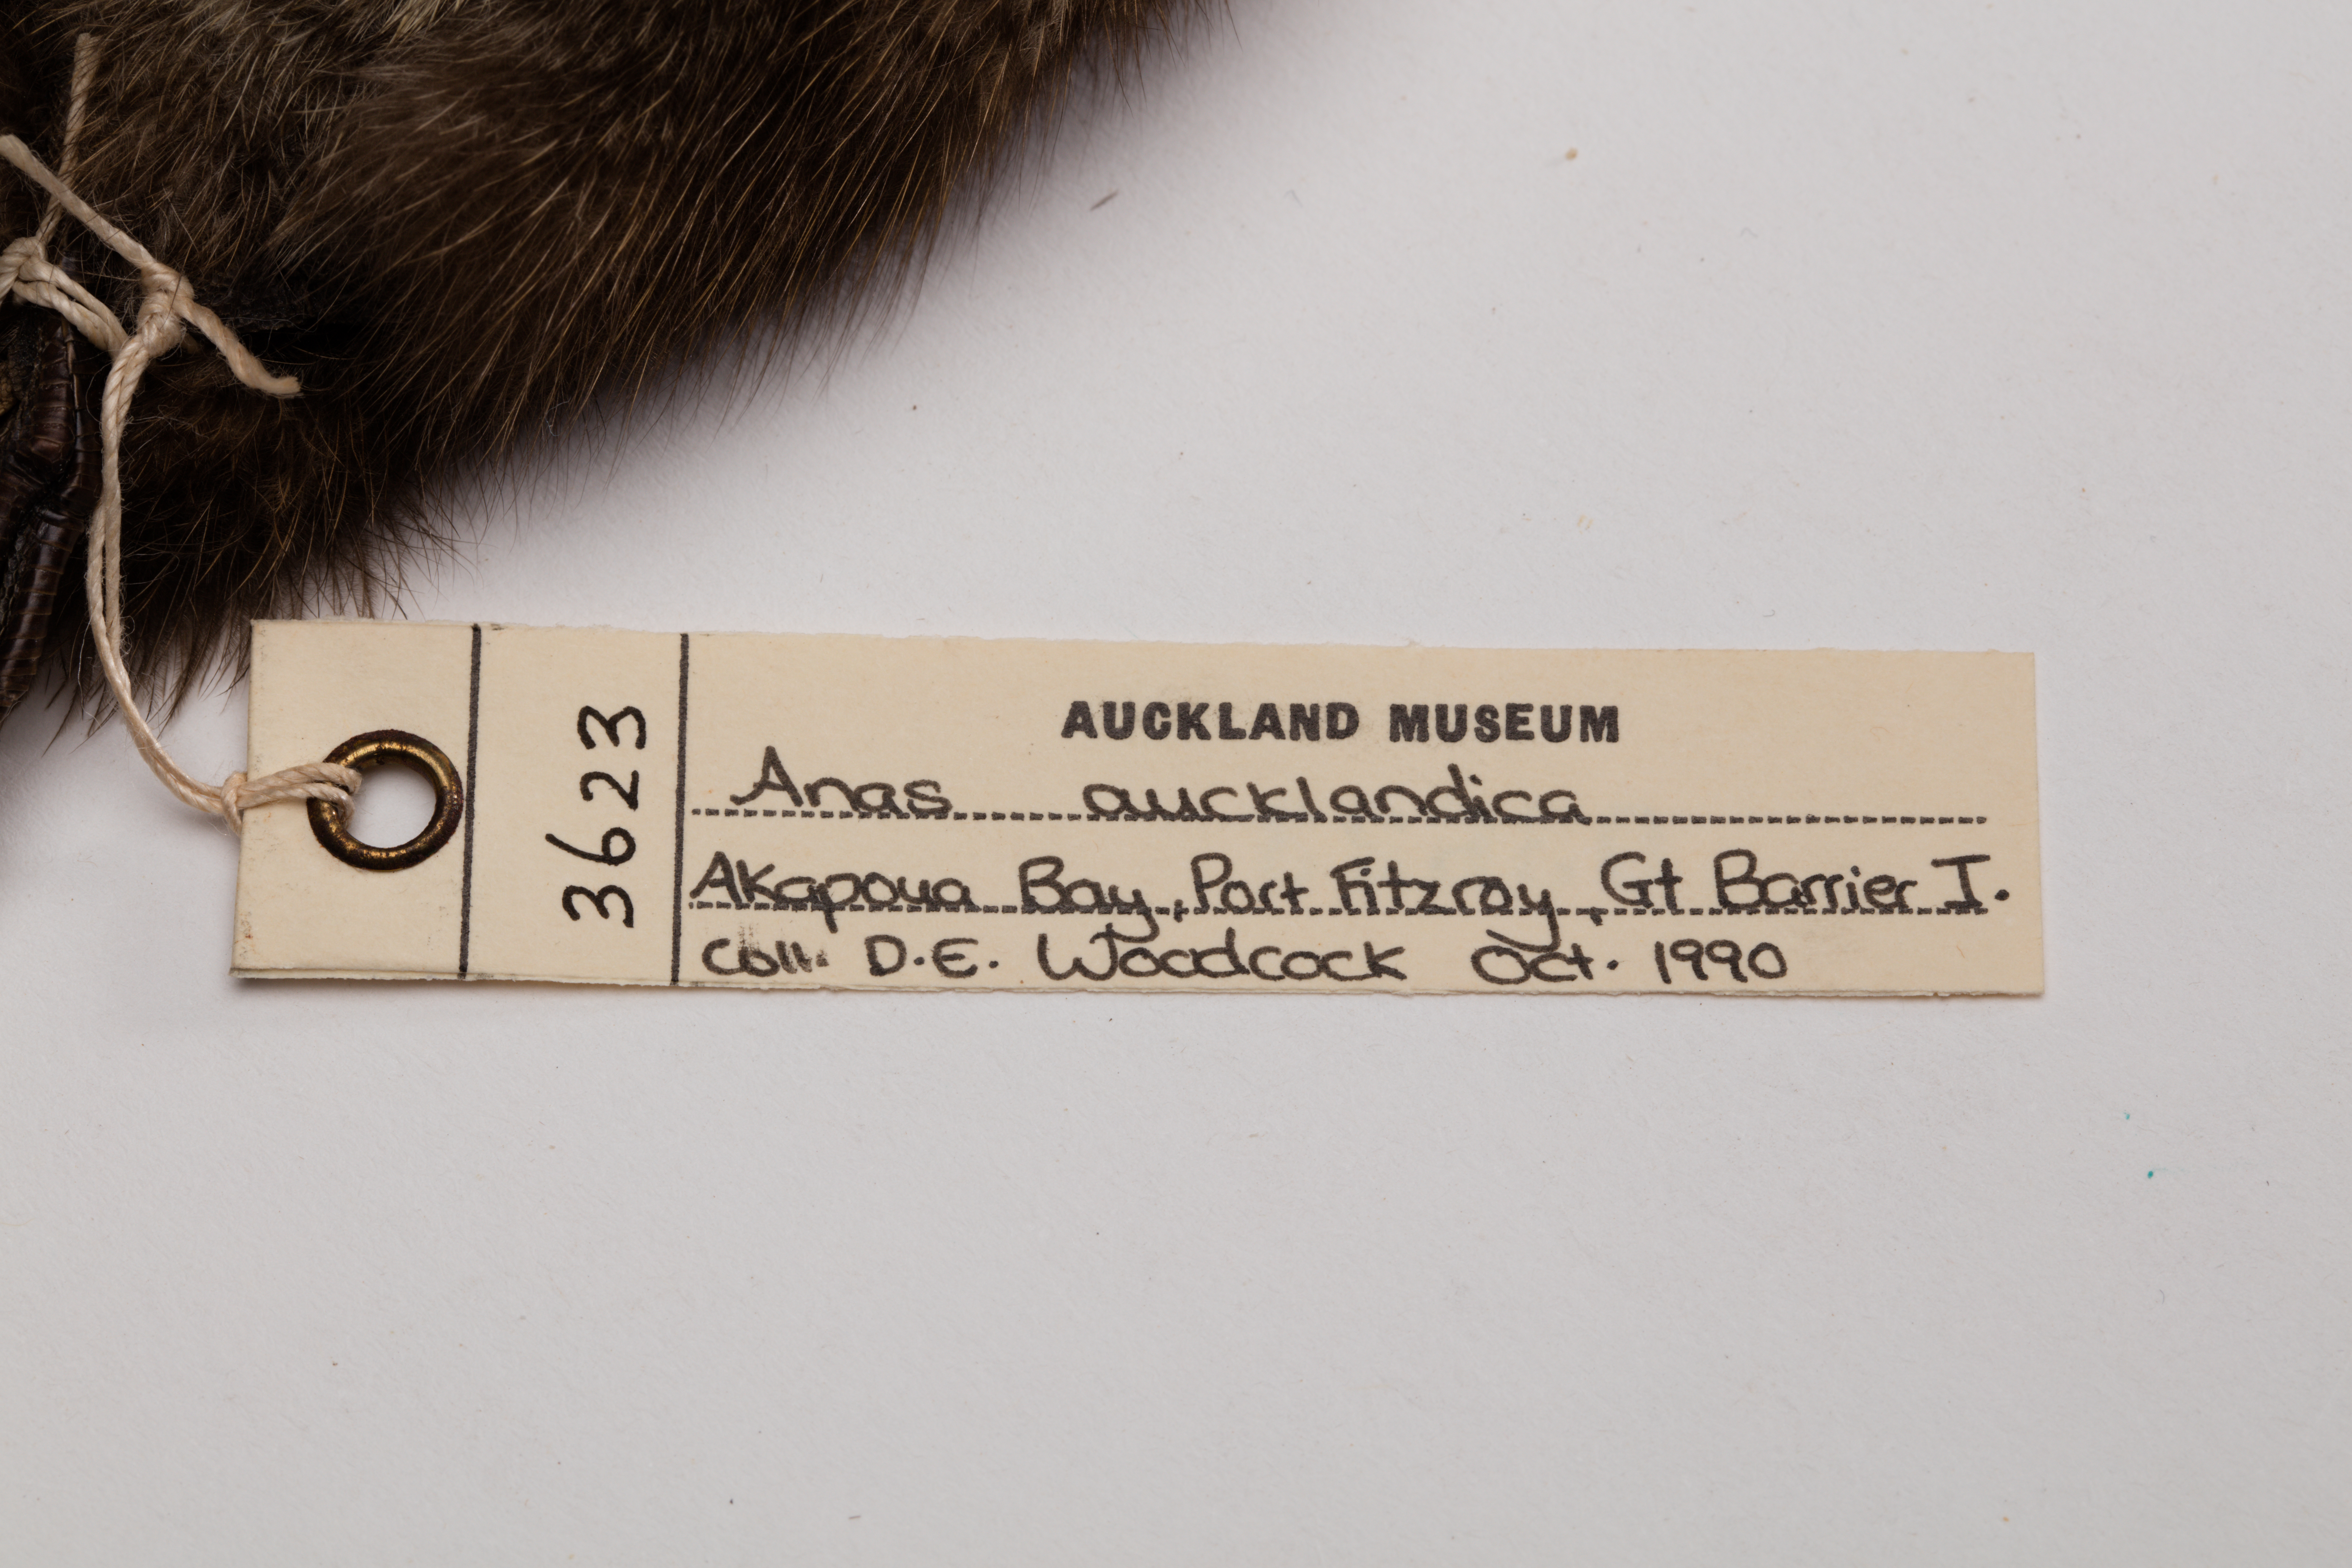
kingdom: Animalia
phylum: Chordata
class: Aves
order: Anseriformes
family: Anatidae
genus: Anas
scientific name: Anas chlorotis
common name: Brown teal
